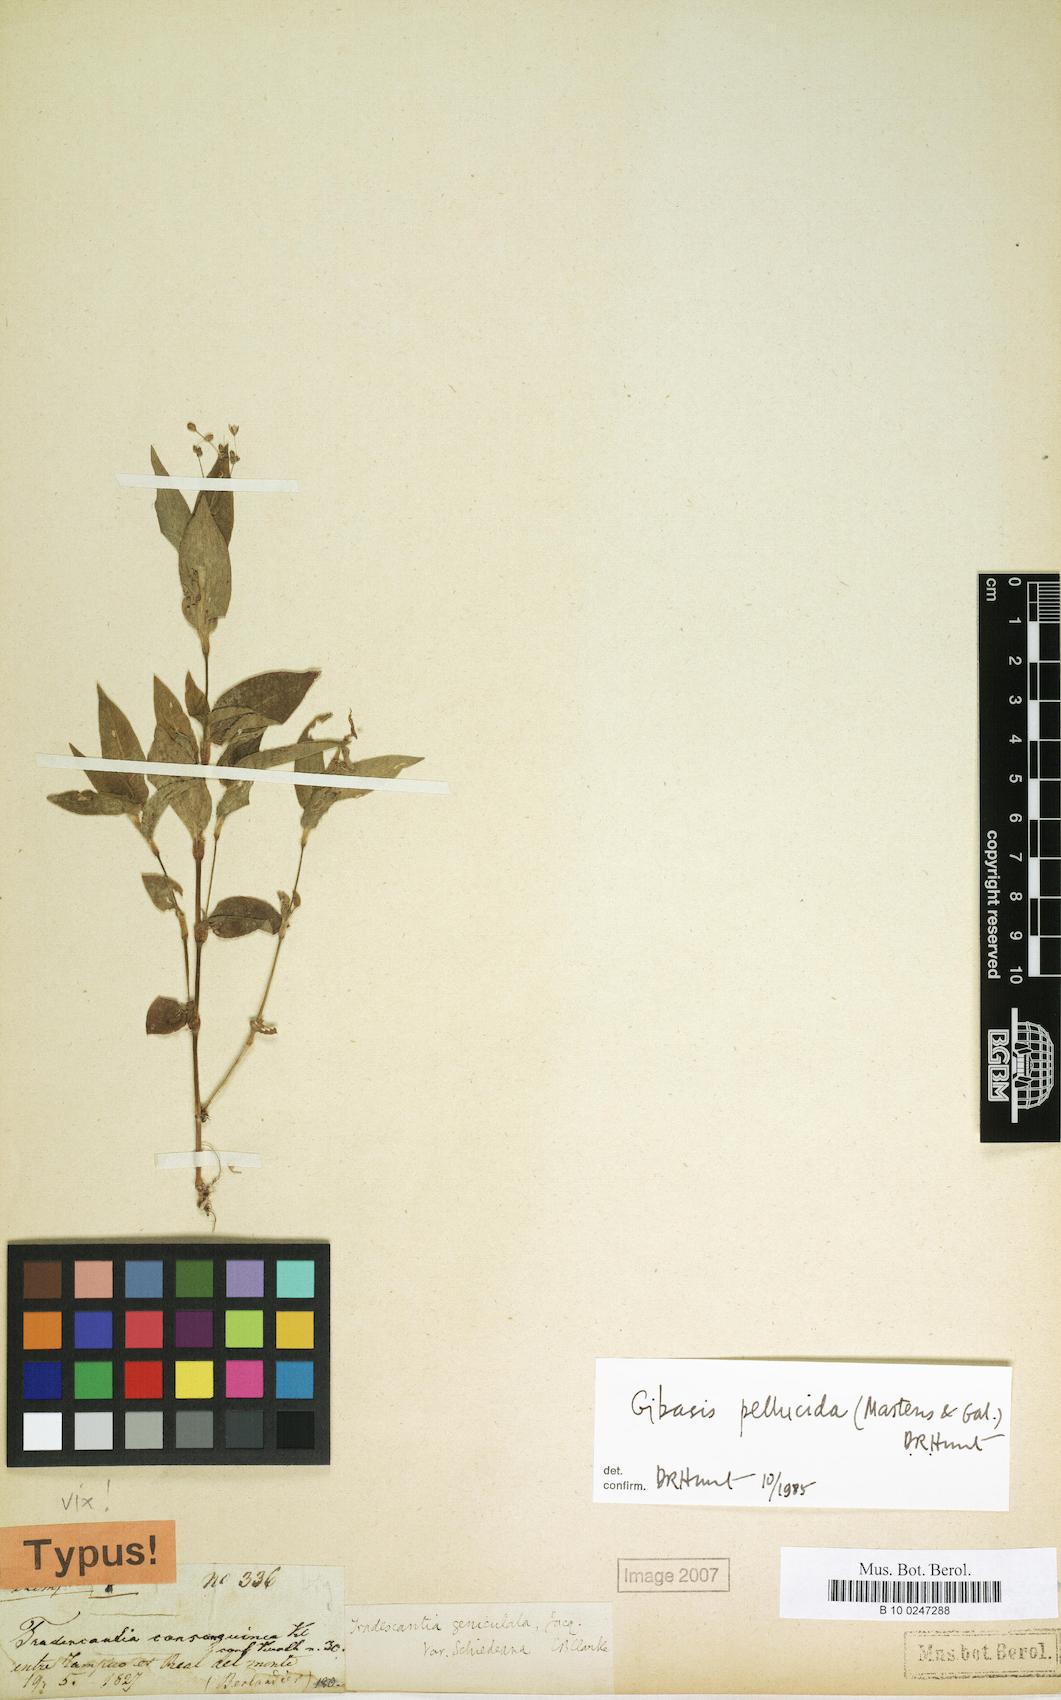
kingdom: Plantae
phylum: Tracheophyta
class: Liliopsida
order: Commelinales
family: Commelinaceae
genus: Gibasis
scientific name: Gibasis pellucida
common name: Dotted bridalveil
